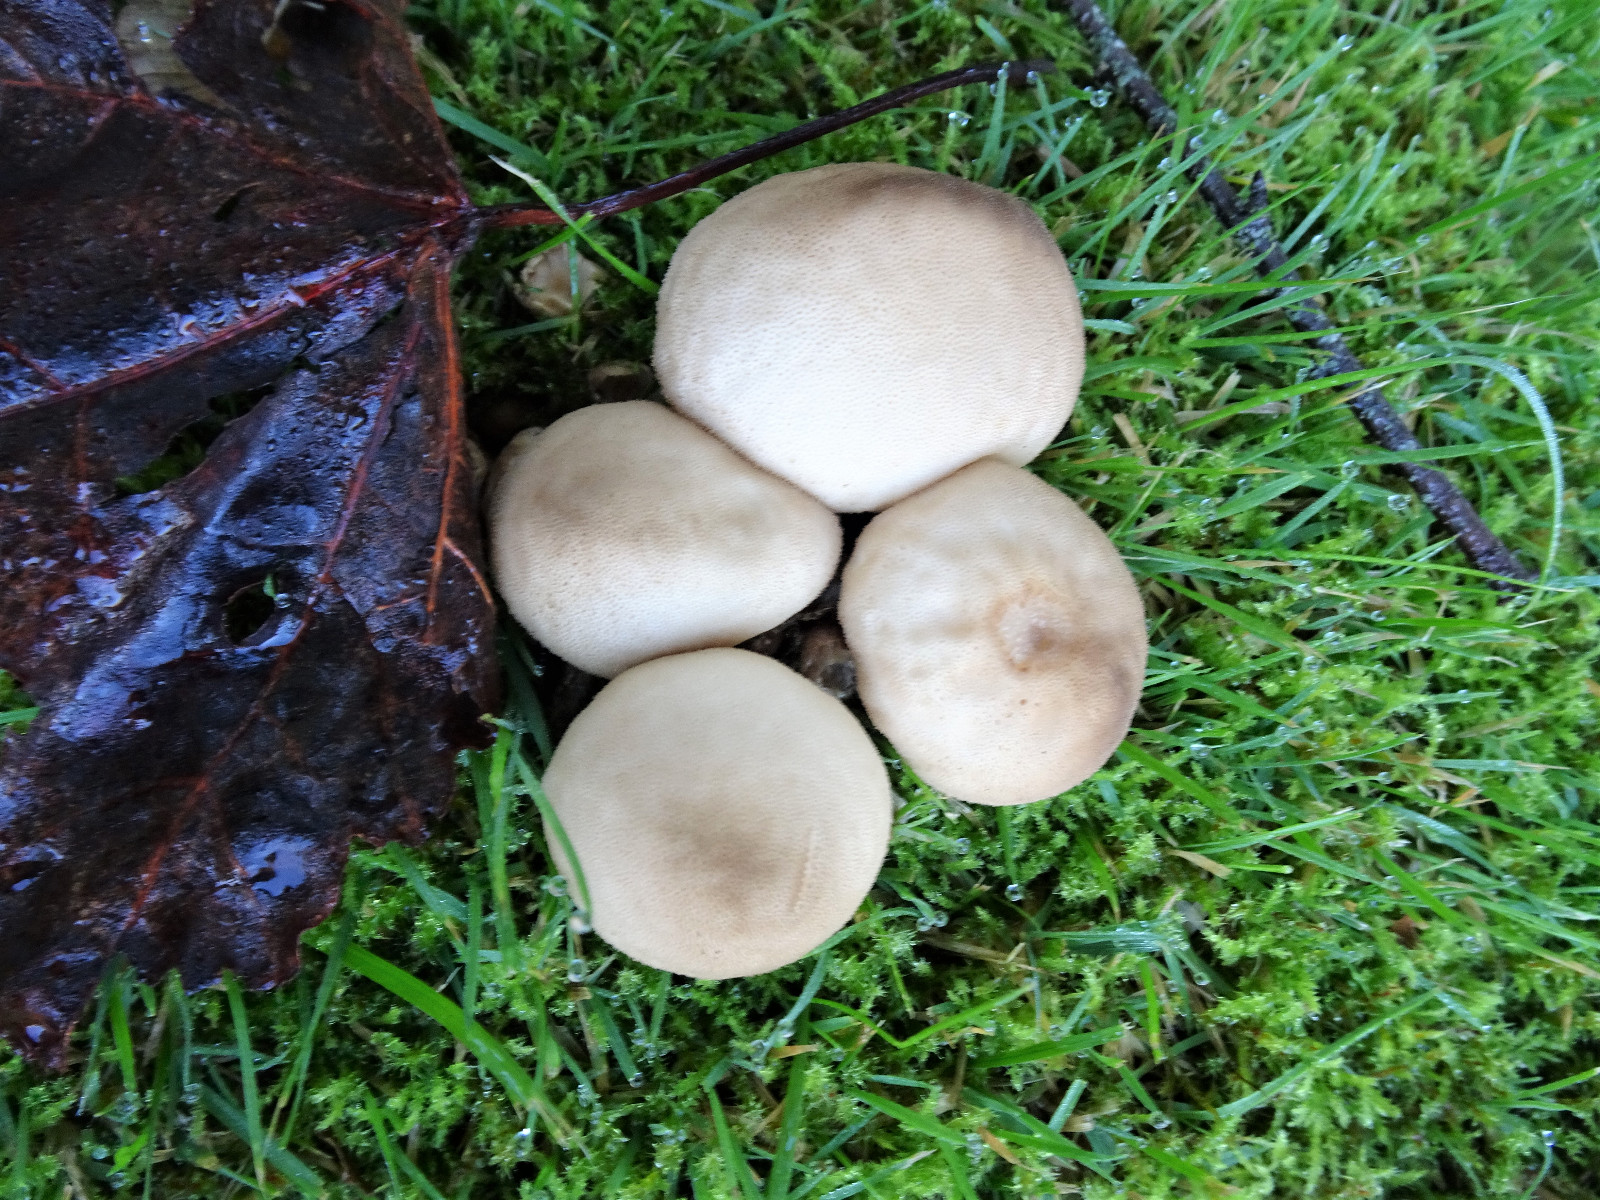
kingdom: Fungi
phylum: Basidiomycota
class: Agaricomycetes
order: Agaricales
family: Lycoperdaceae
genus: Apioperdon
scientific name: Apioperdon pyriforme
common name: pære-støvbold
